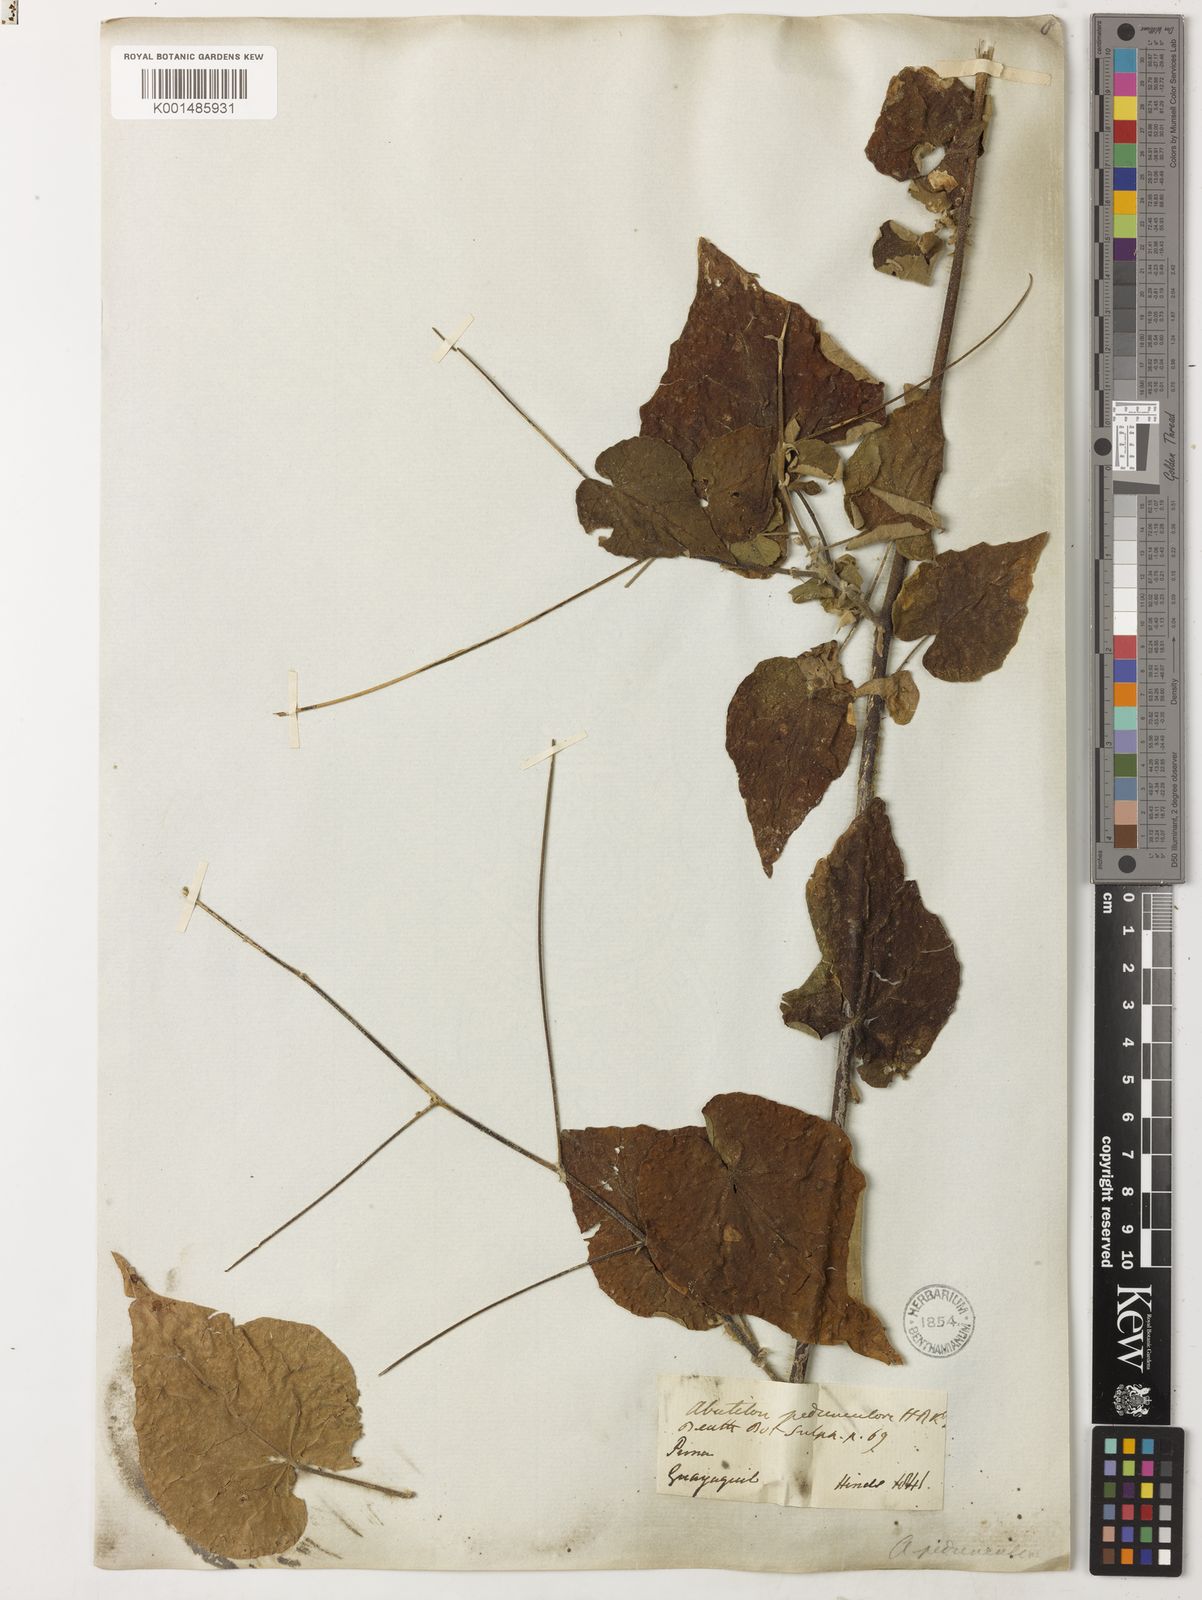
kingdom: Plantae
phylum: Tracheophyta
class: Magnoliopsida
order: Malvales
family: Malvaceae
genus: Abutilon
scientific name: Abutilon pedunculare
